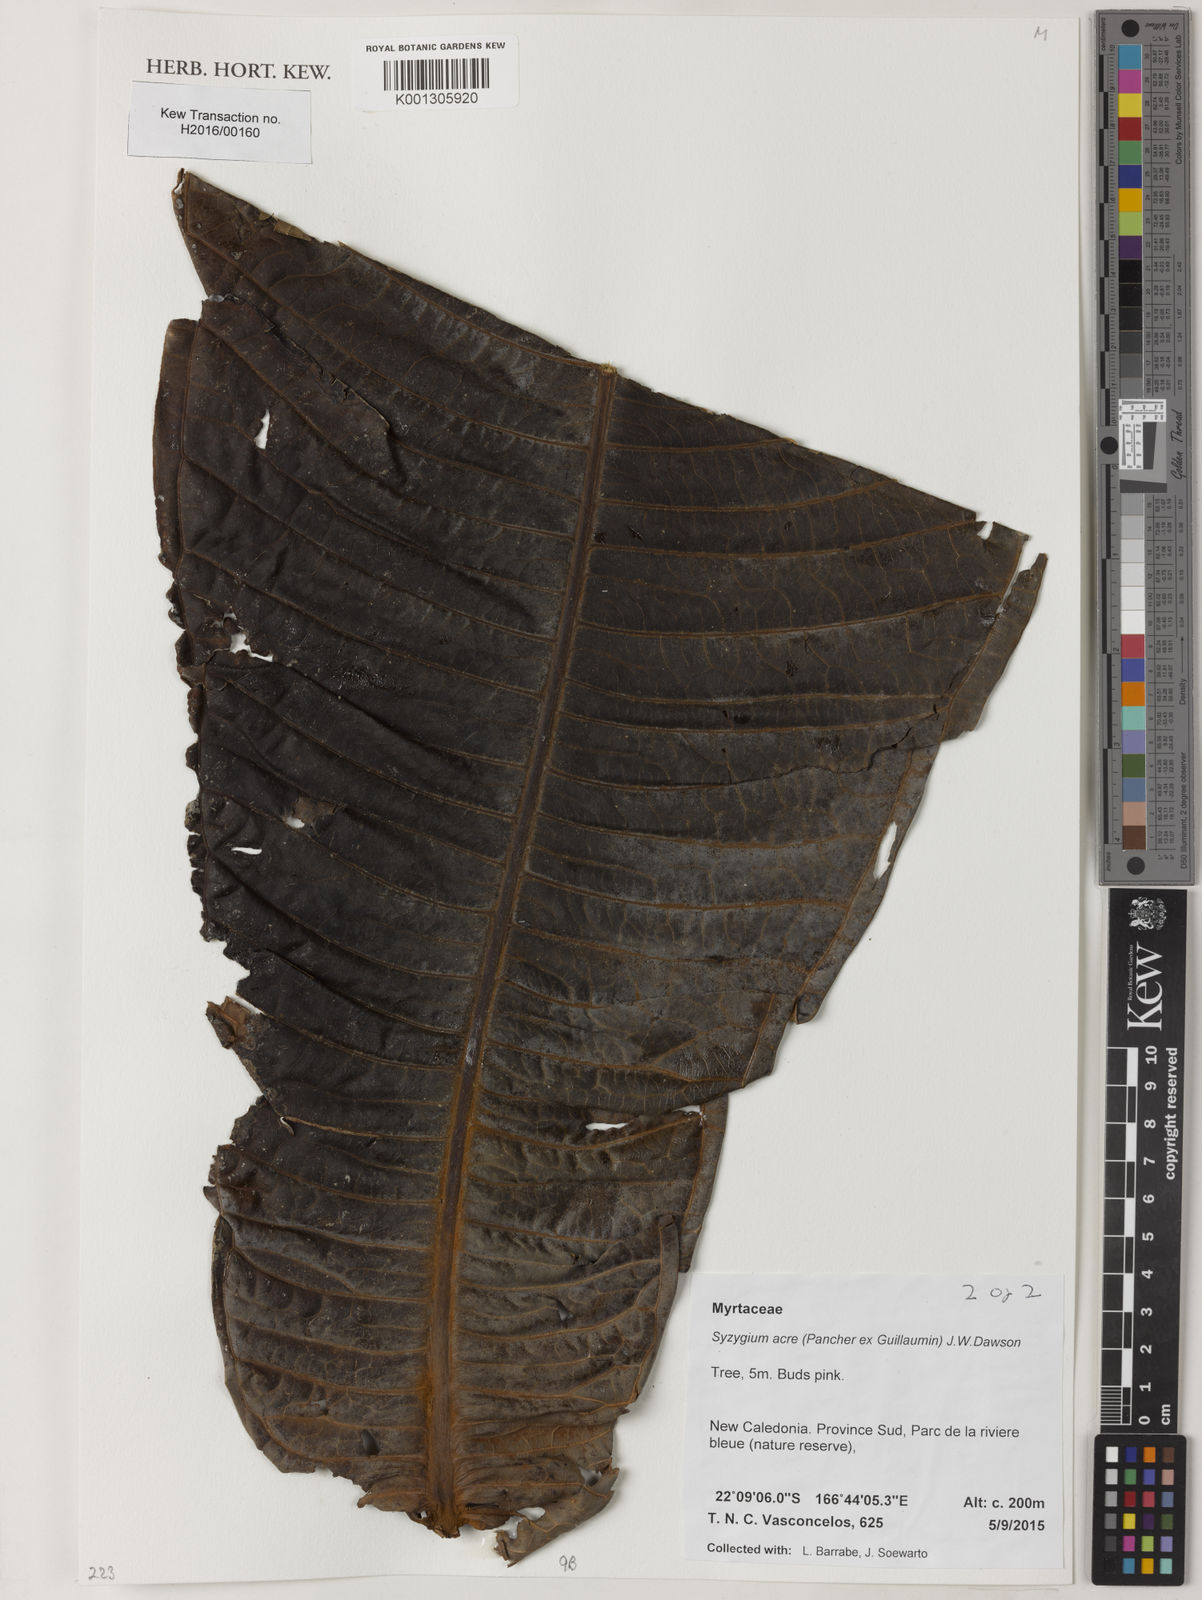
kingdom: Plantae
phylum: Tracheophyta
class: Magnoliopsida
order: Myrtales
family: Myrtaceae
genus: Syzygium
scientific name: Syzygium acre
